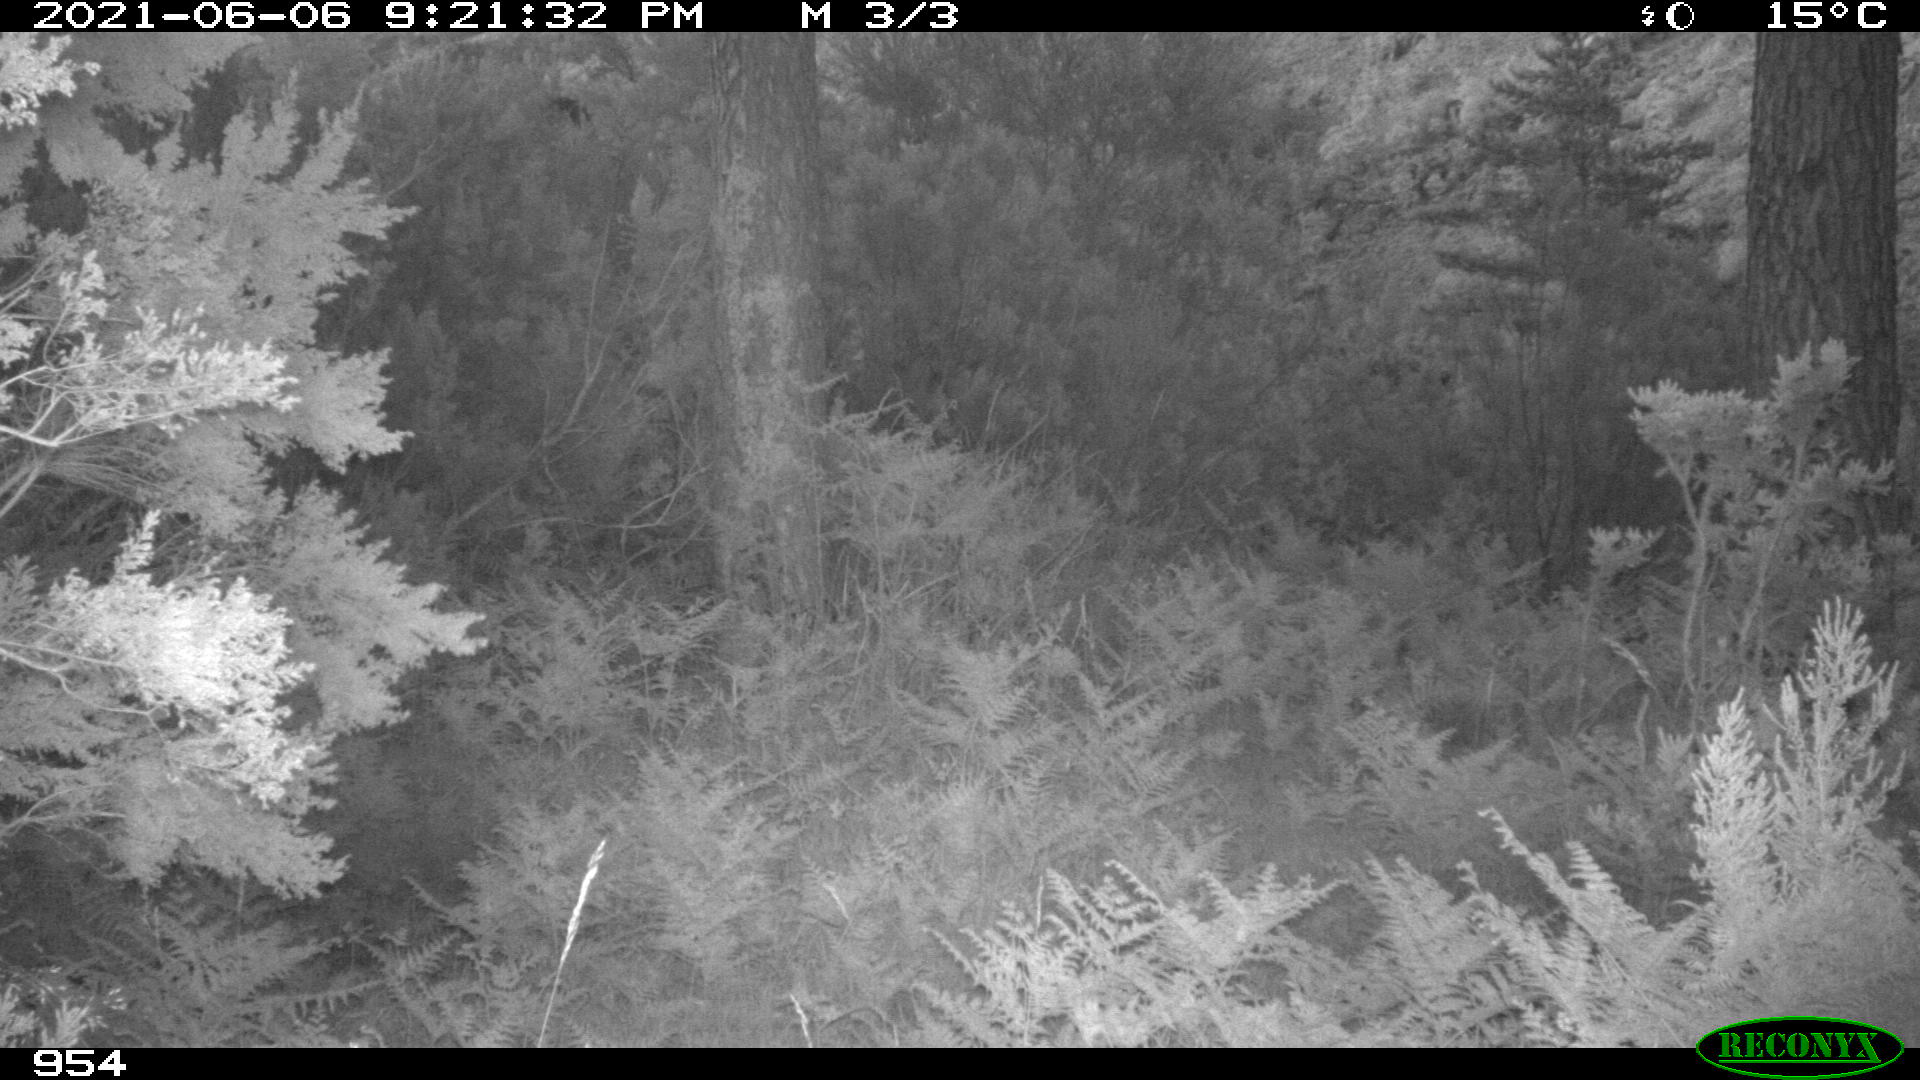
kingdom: Animalia
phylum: Chordata
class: Mammalia
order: Artiodactyla
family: Cervidae
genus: Capreolus
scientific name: Capreolus capreolus
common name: Western roe deer
